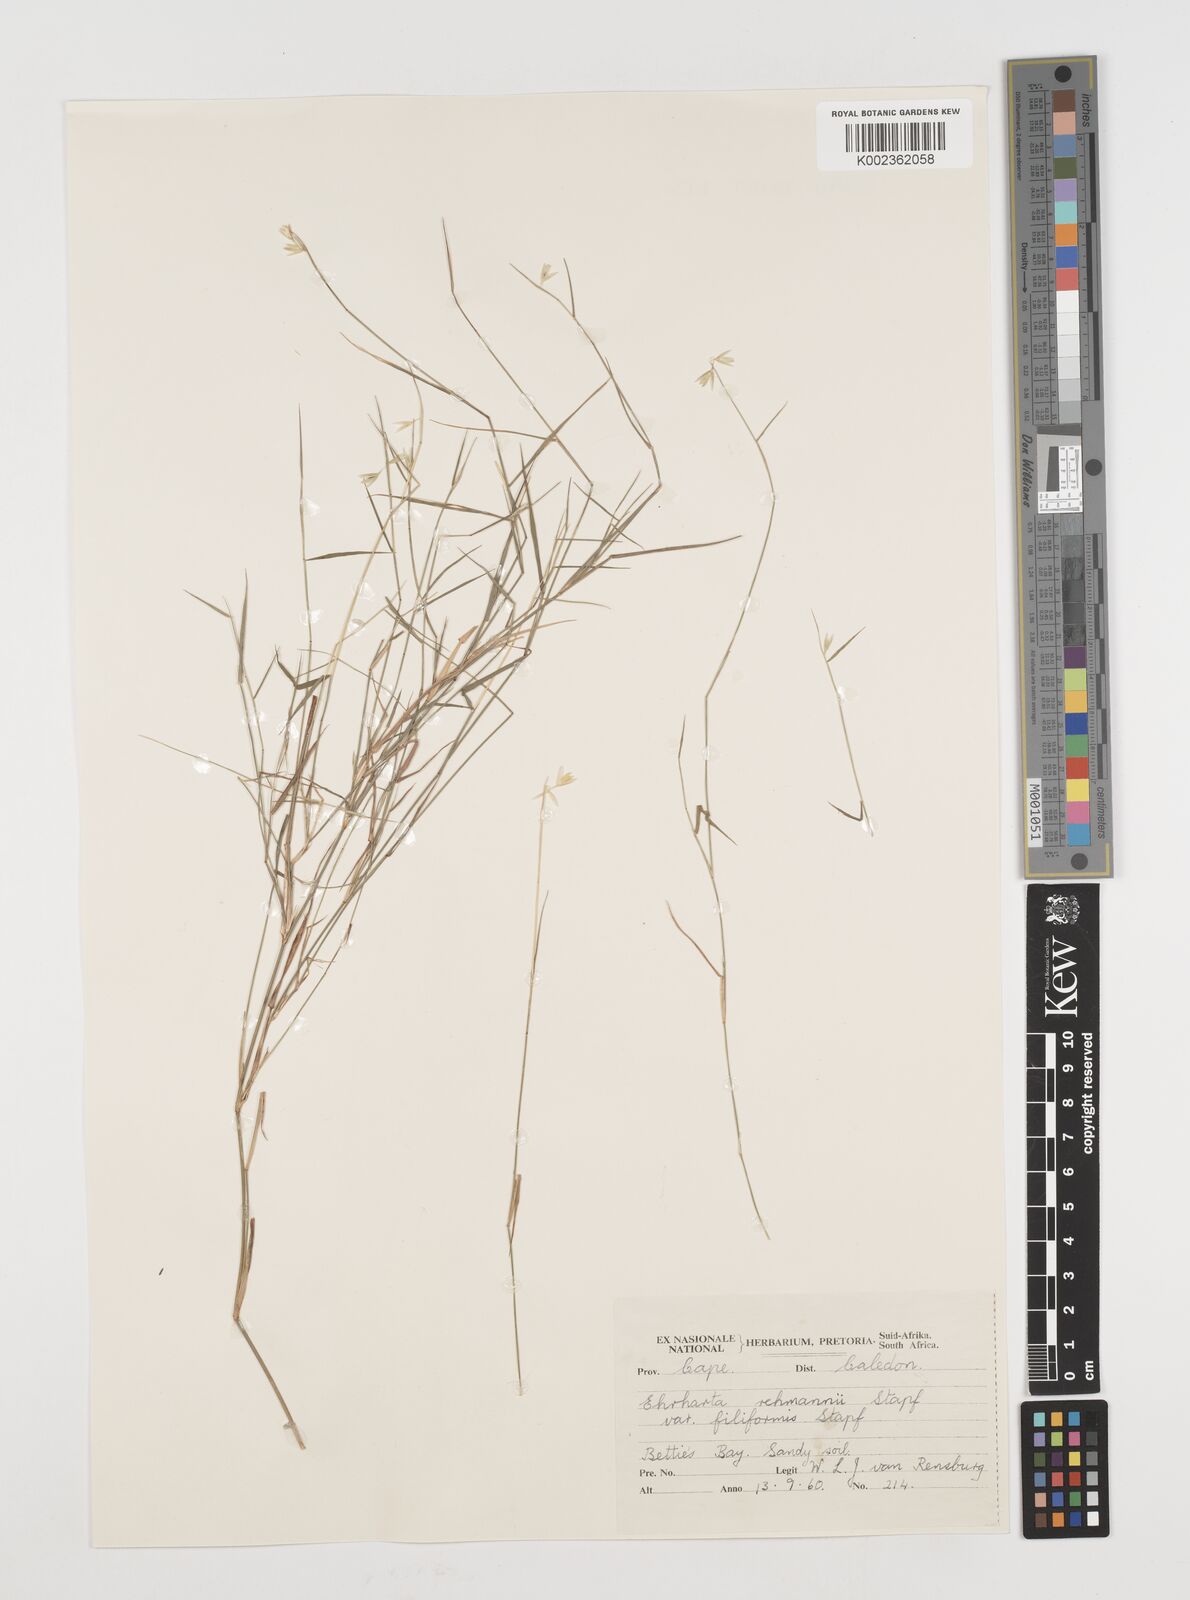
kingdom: Plantae
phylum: Tracheophyta
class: Liliopsida
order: Poales
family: Poaceae
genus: Ehrharta
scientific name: Ehrharta rehmannii
